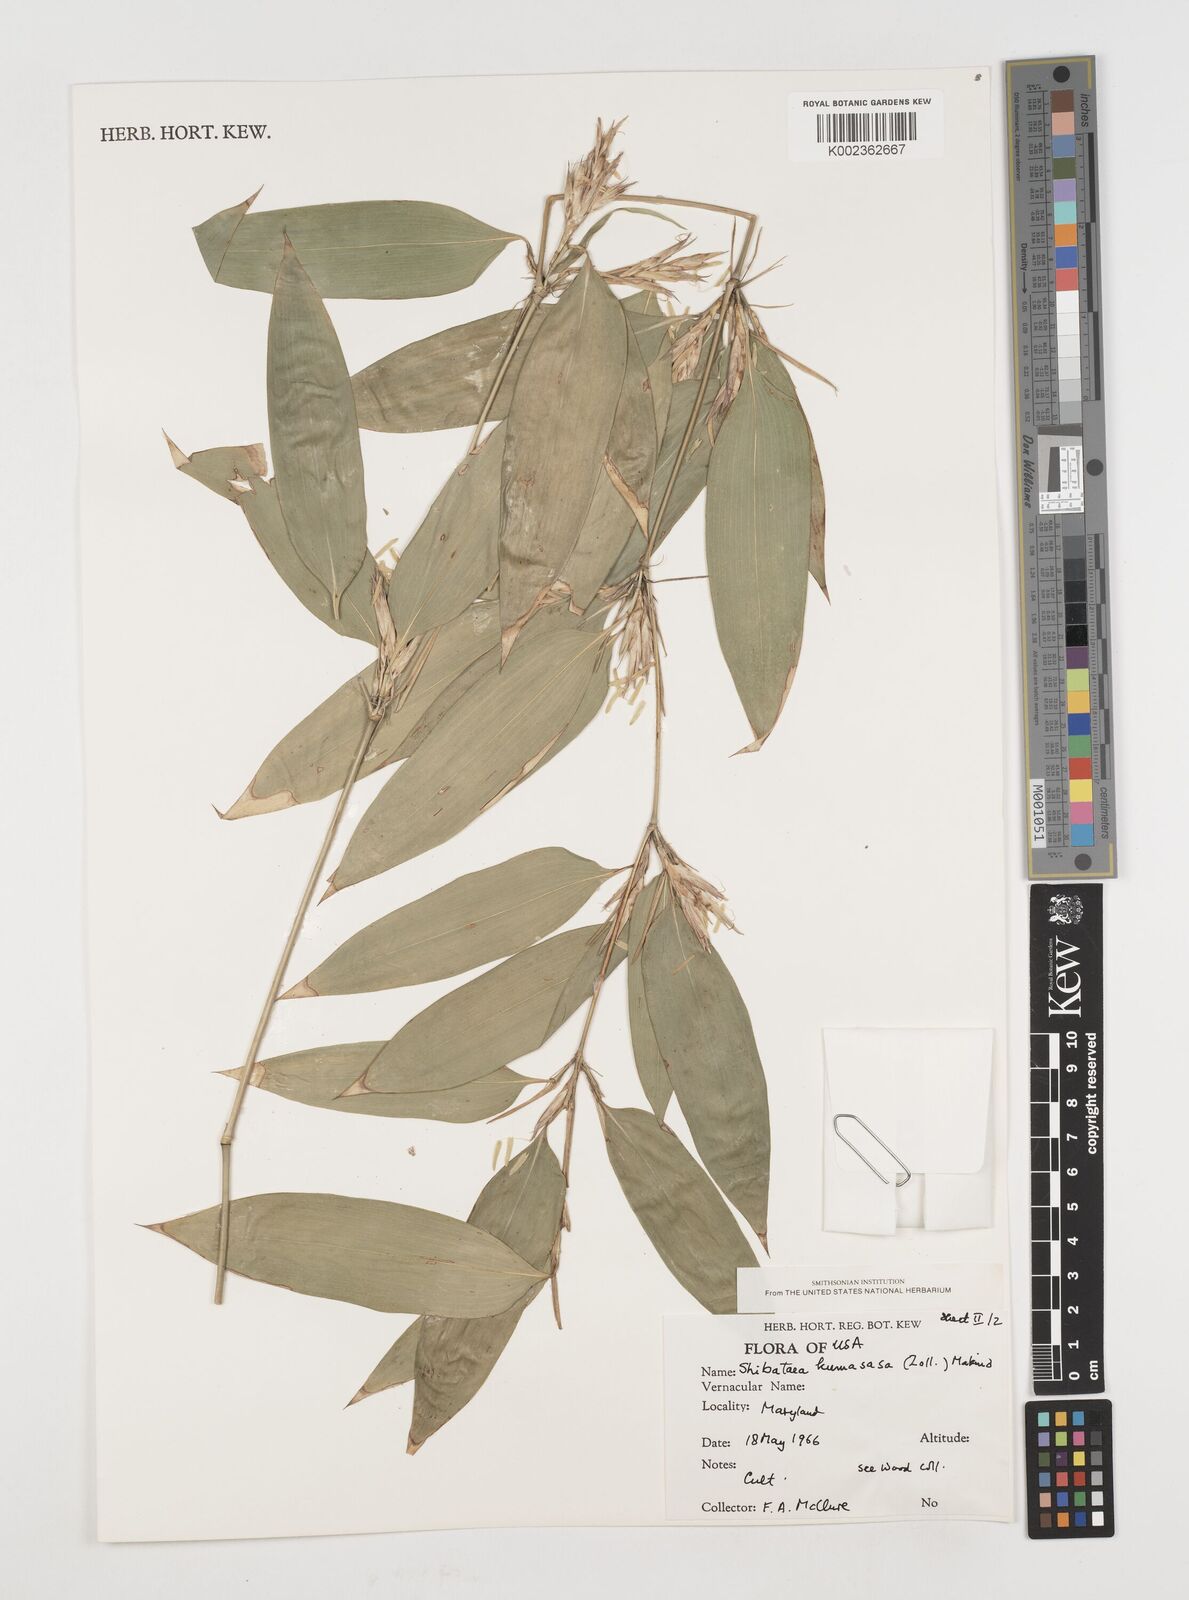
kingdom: Plantae
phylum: Tracheophyta
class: Liliopsida
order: Poales
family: Poaceae
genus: Shibataea
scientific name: Shibataea
